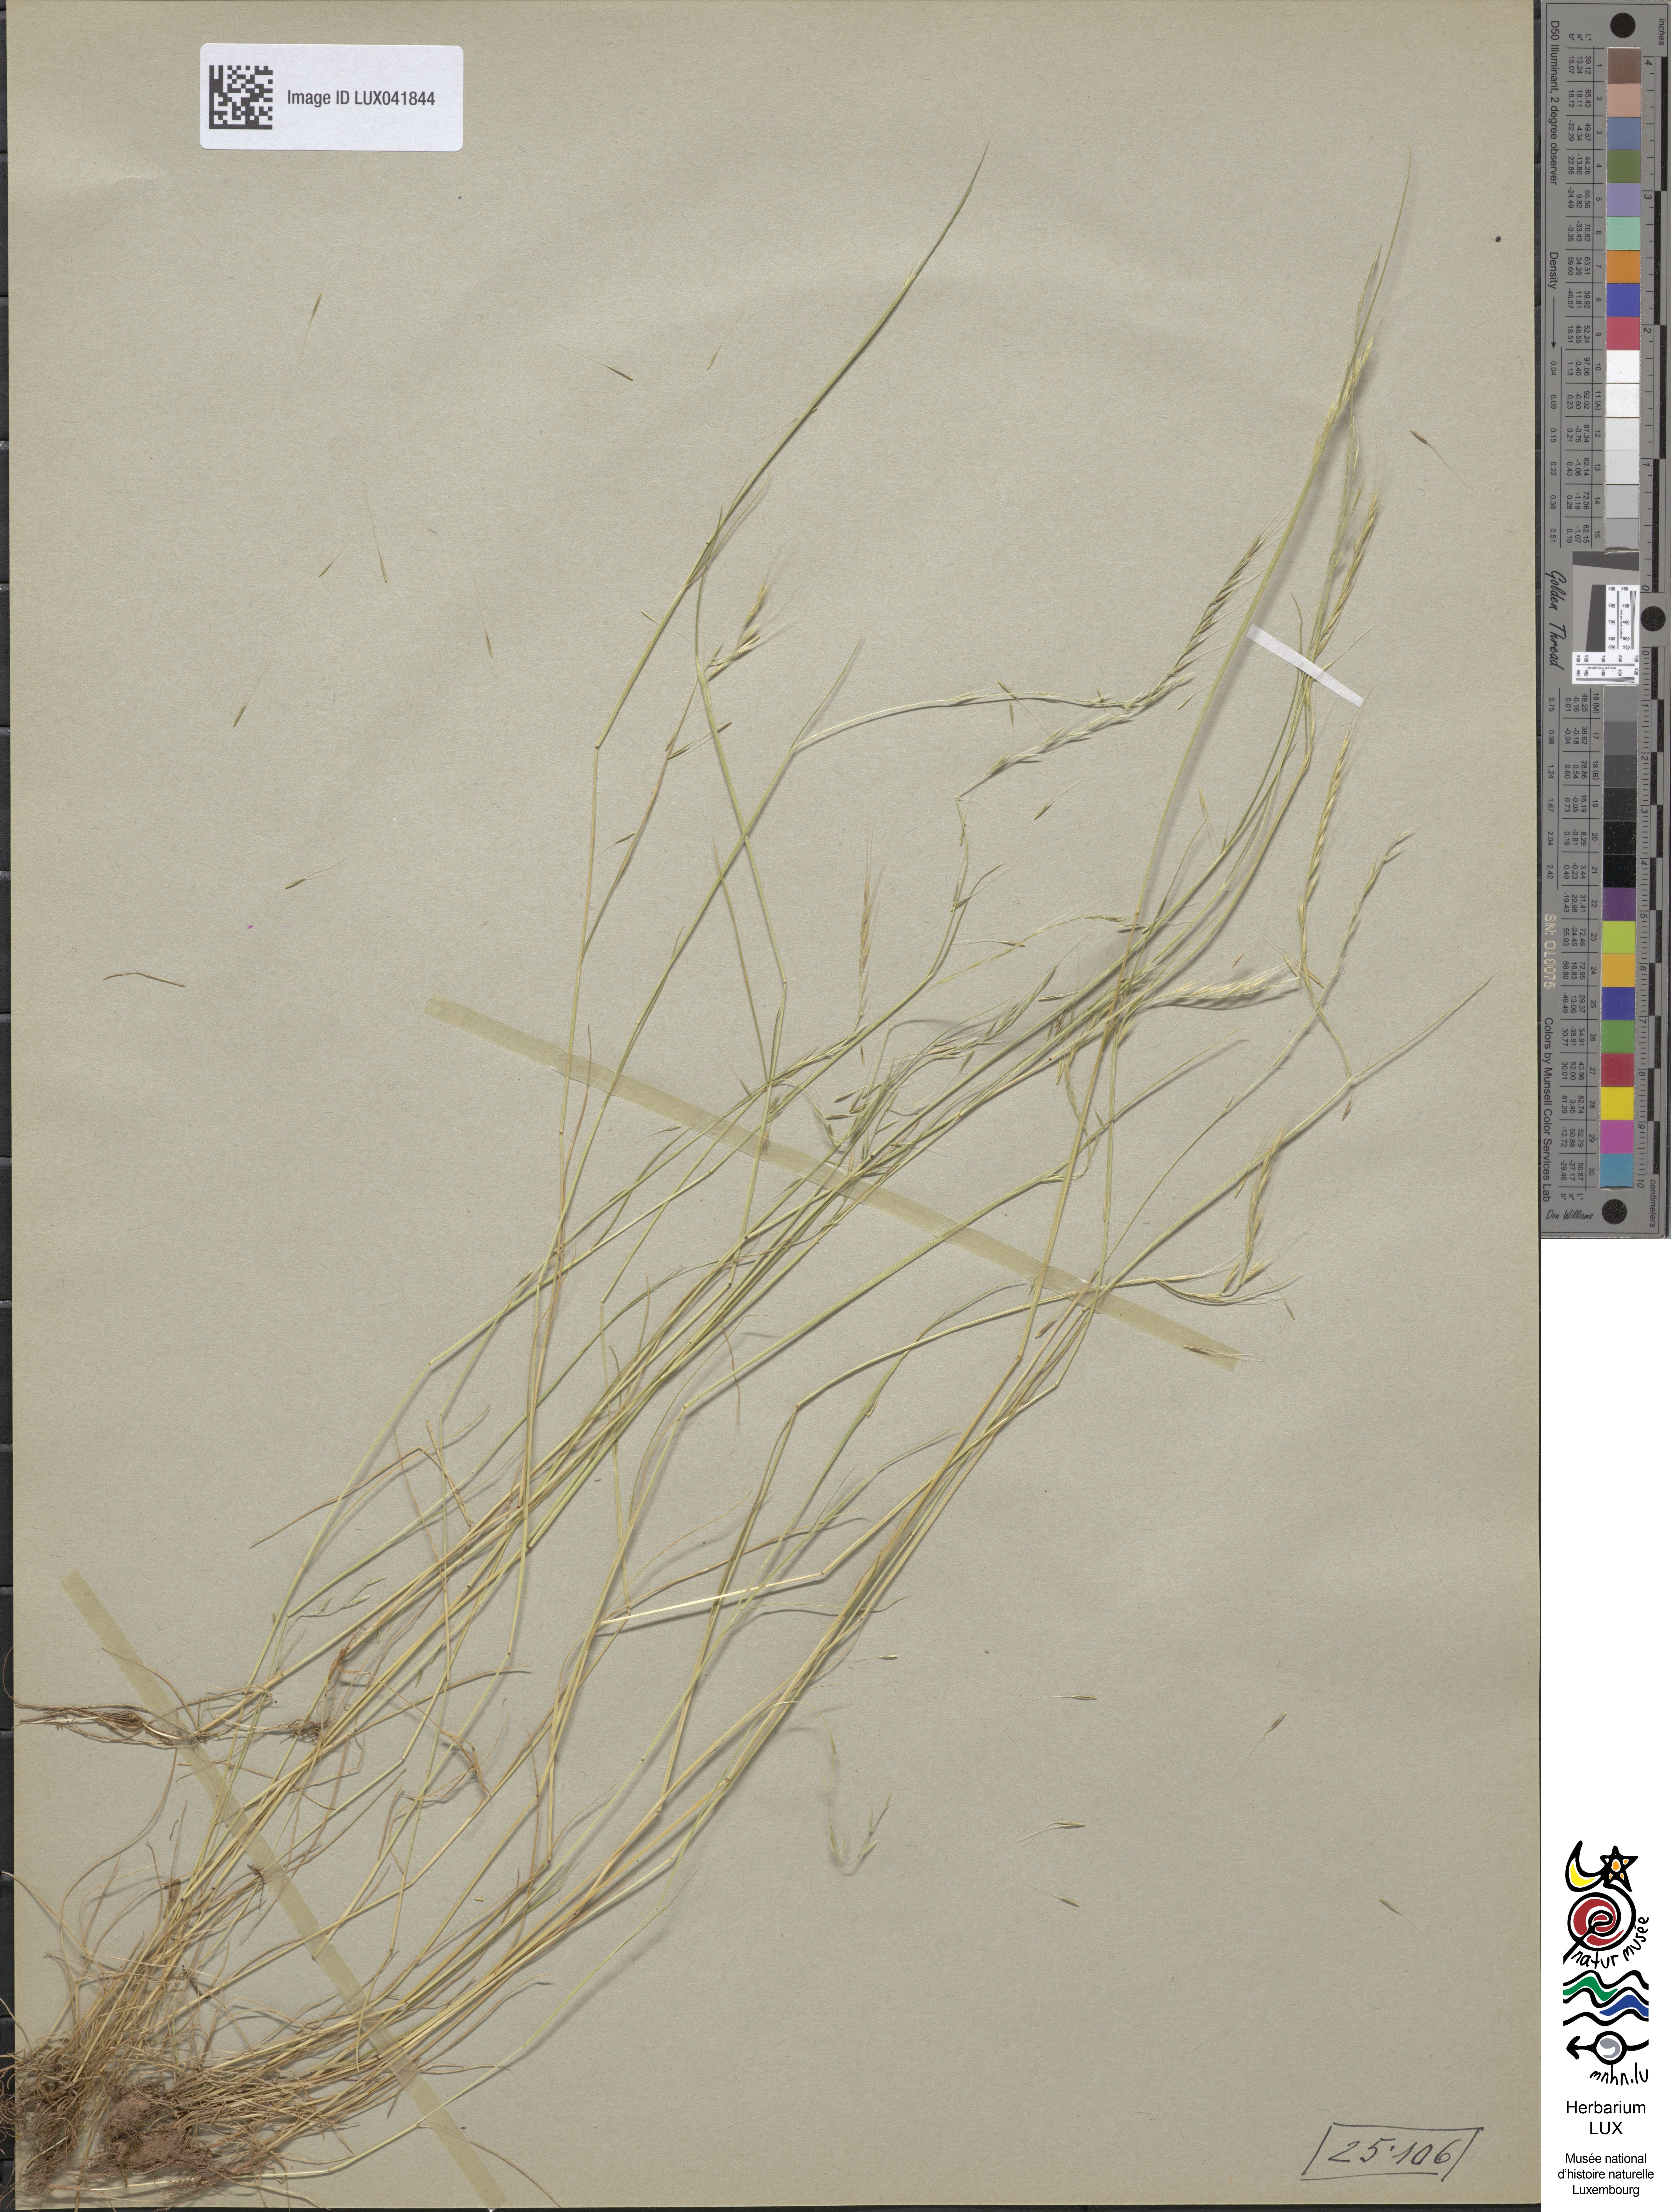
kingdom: Plantae
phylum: Tracheophyta
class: Liliopsida
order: Poales
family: Poaceae
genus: Festuca
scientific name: Festuca myuros
